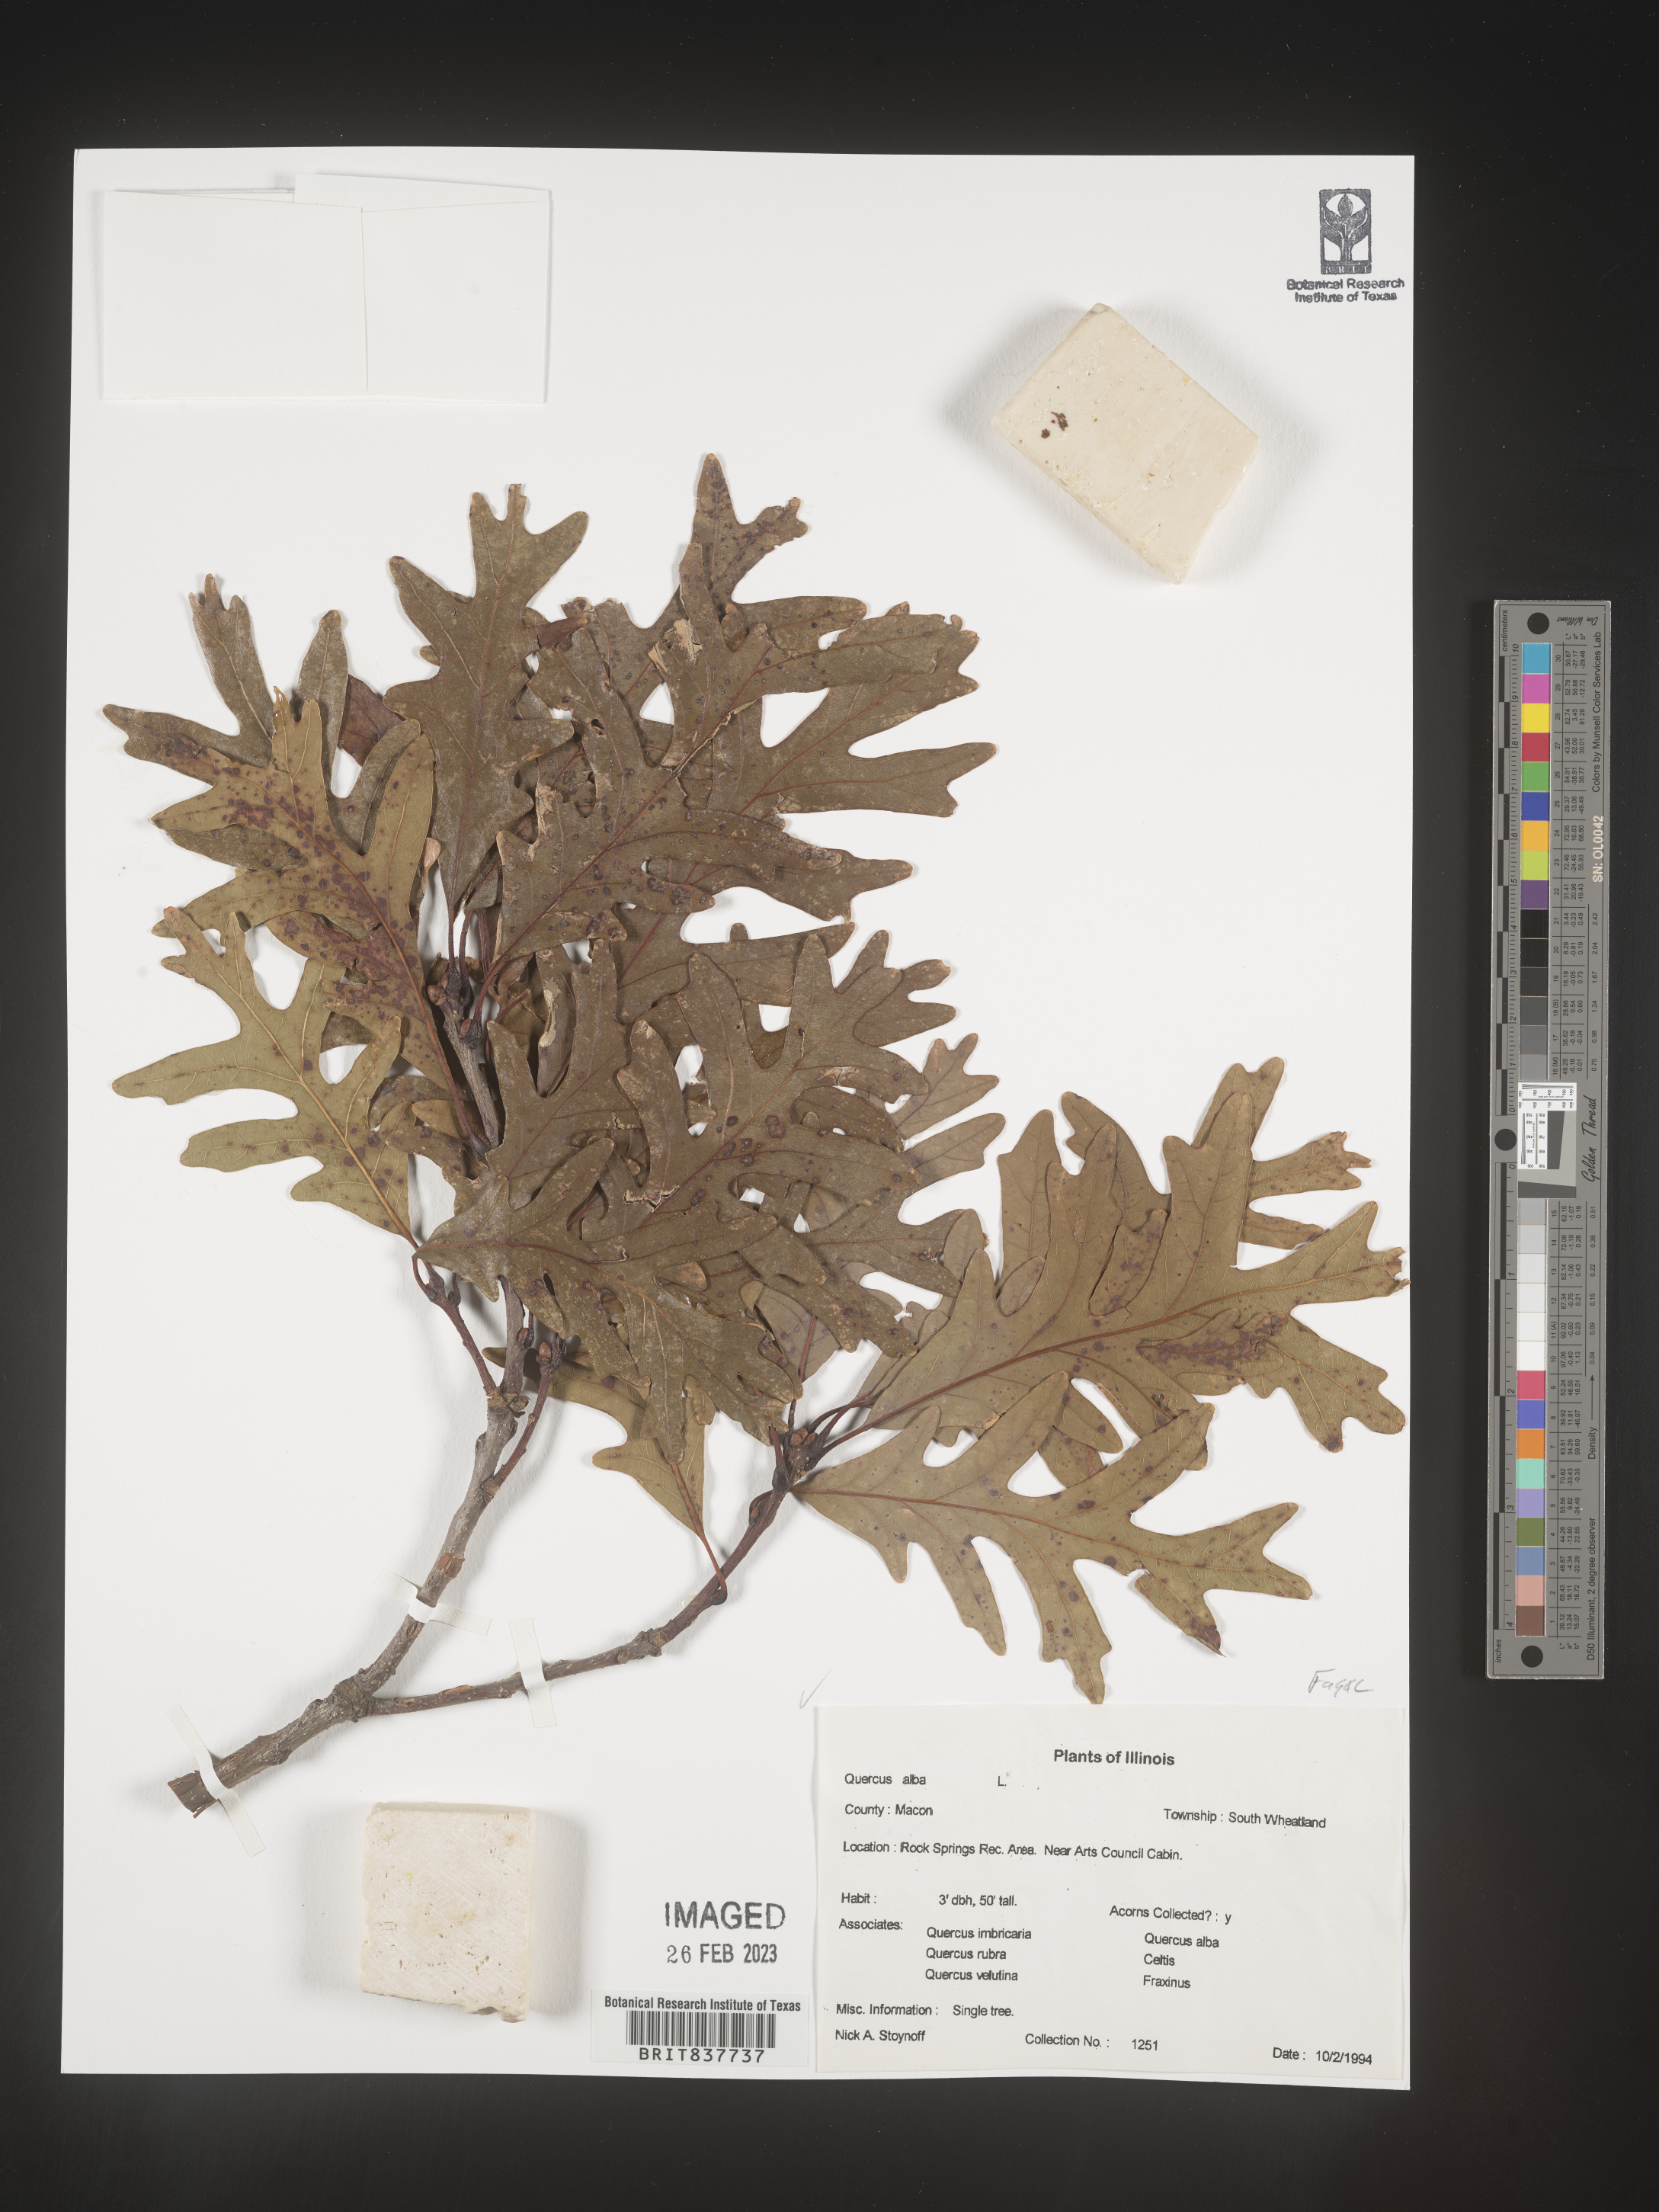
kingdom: Plantae
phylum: Tracheophyta
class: Magnoliopsida
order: Fagales
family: Fagaceae
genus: Quercus
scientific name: Quercus alba
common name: White oak
